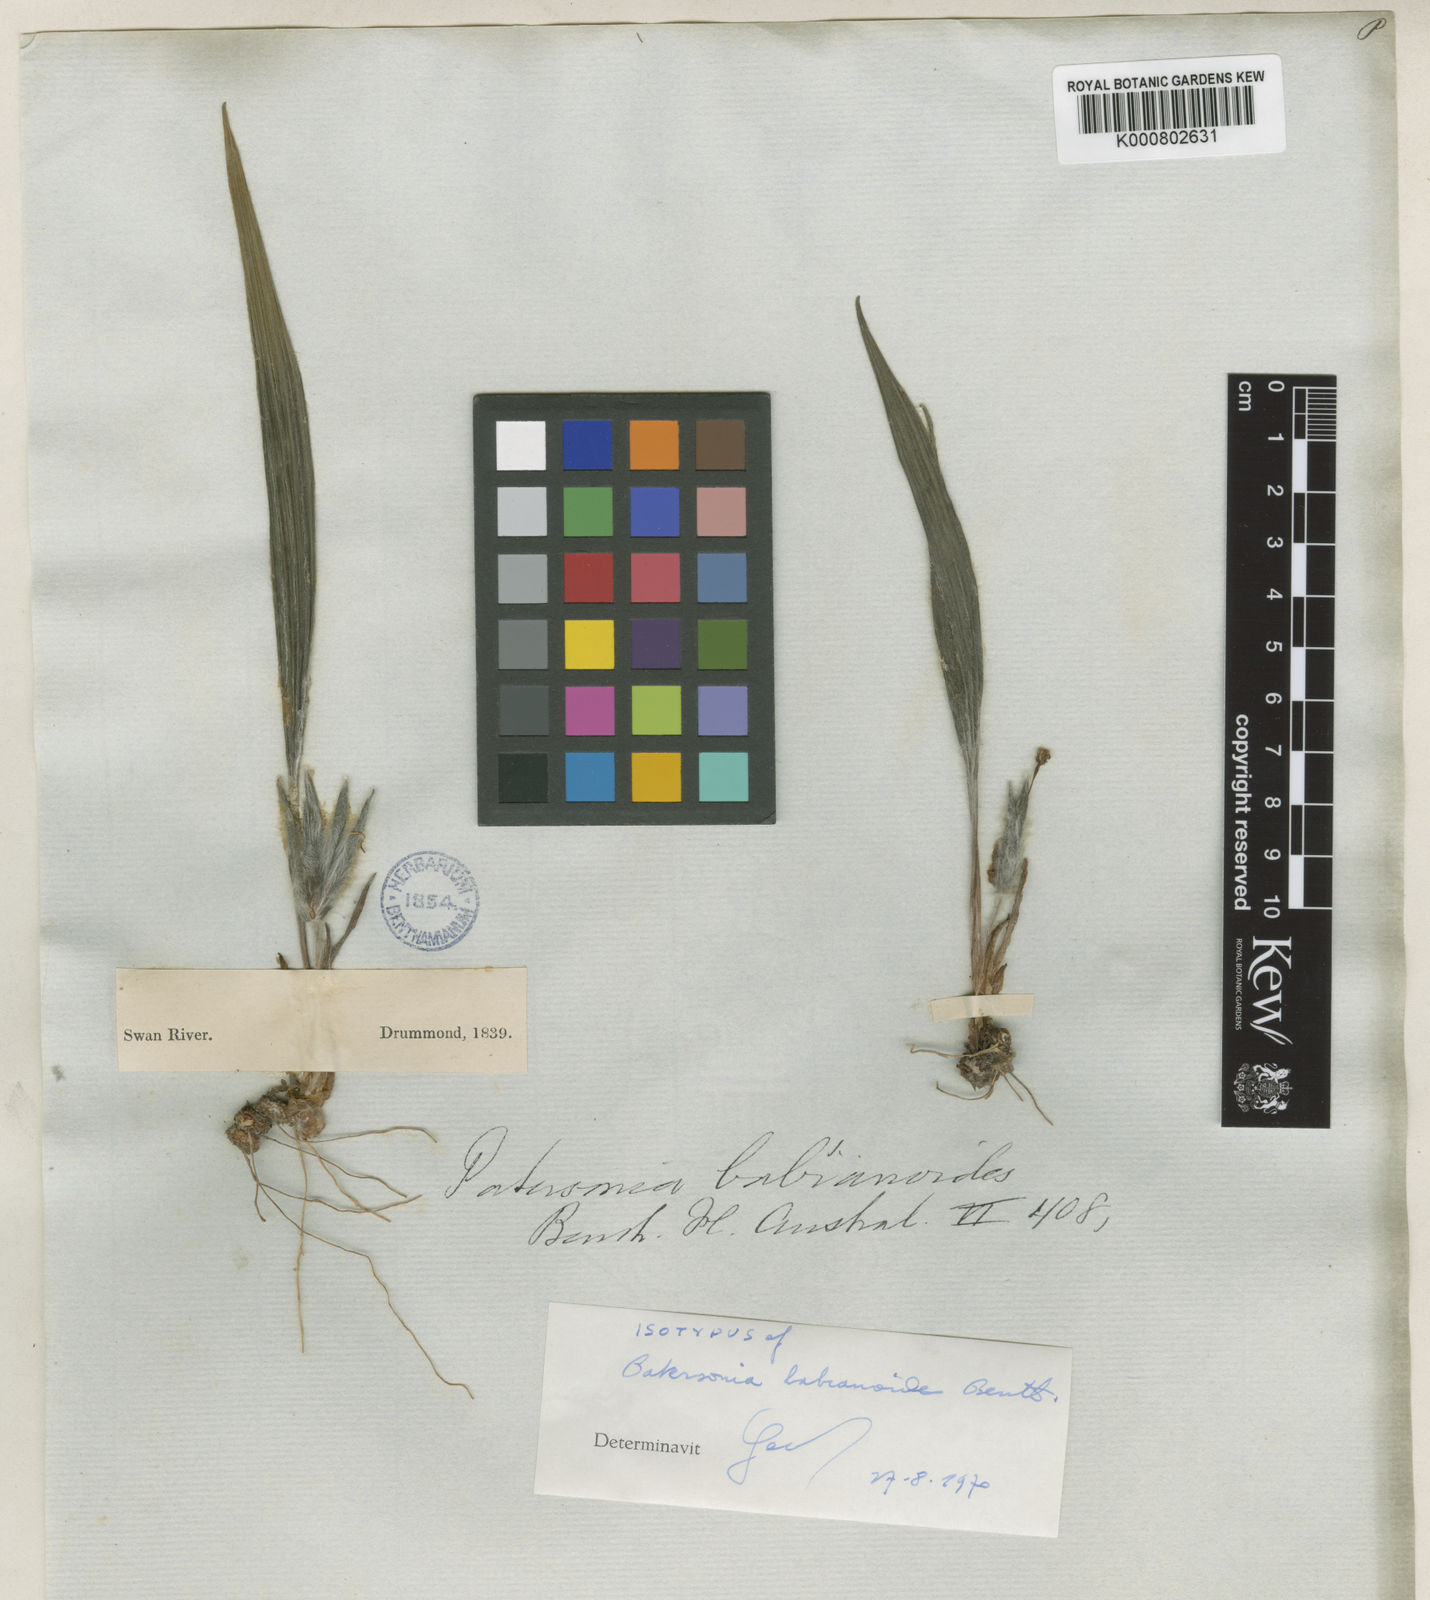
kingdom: Plantae
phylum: Tracheophyta
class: Liliopsida
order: Asparagales
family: Iridaceae
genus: Patersonia
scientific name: Patersonia babianoides
